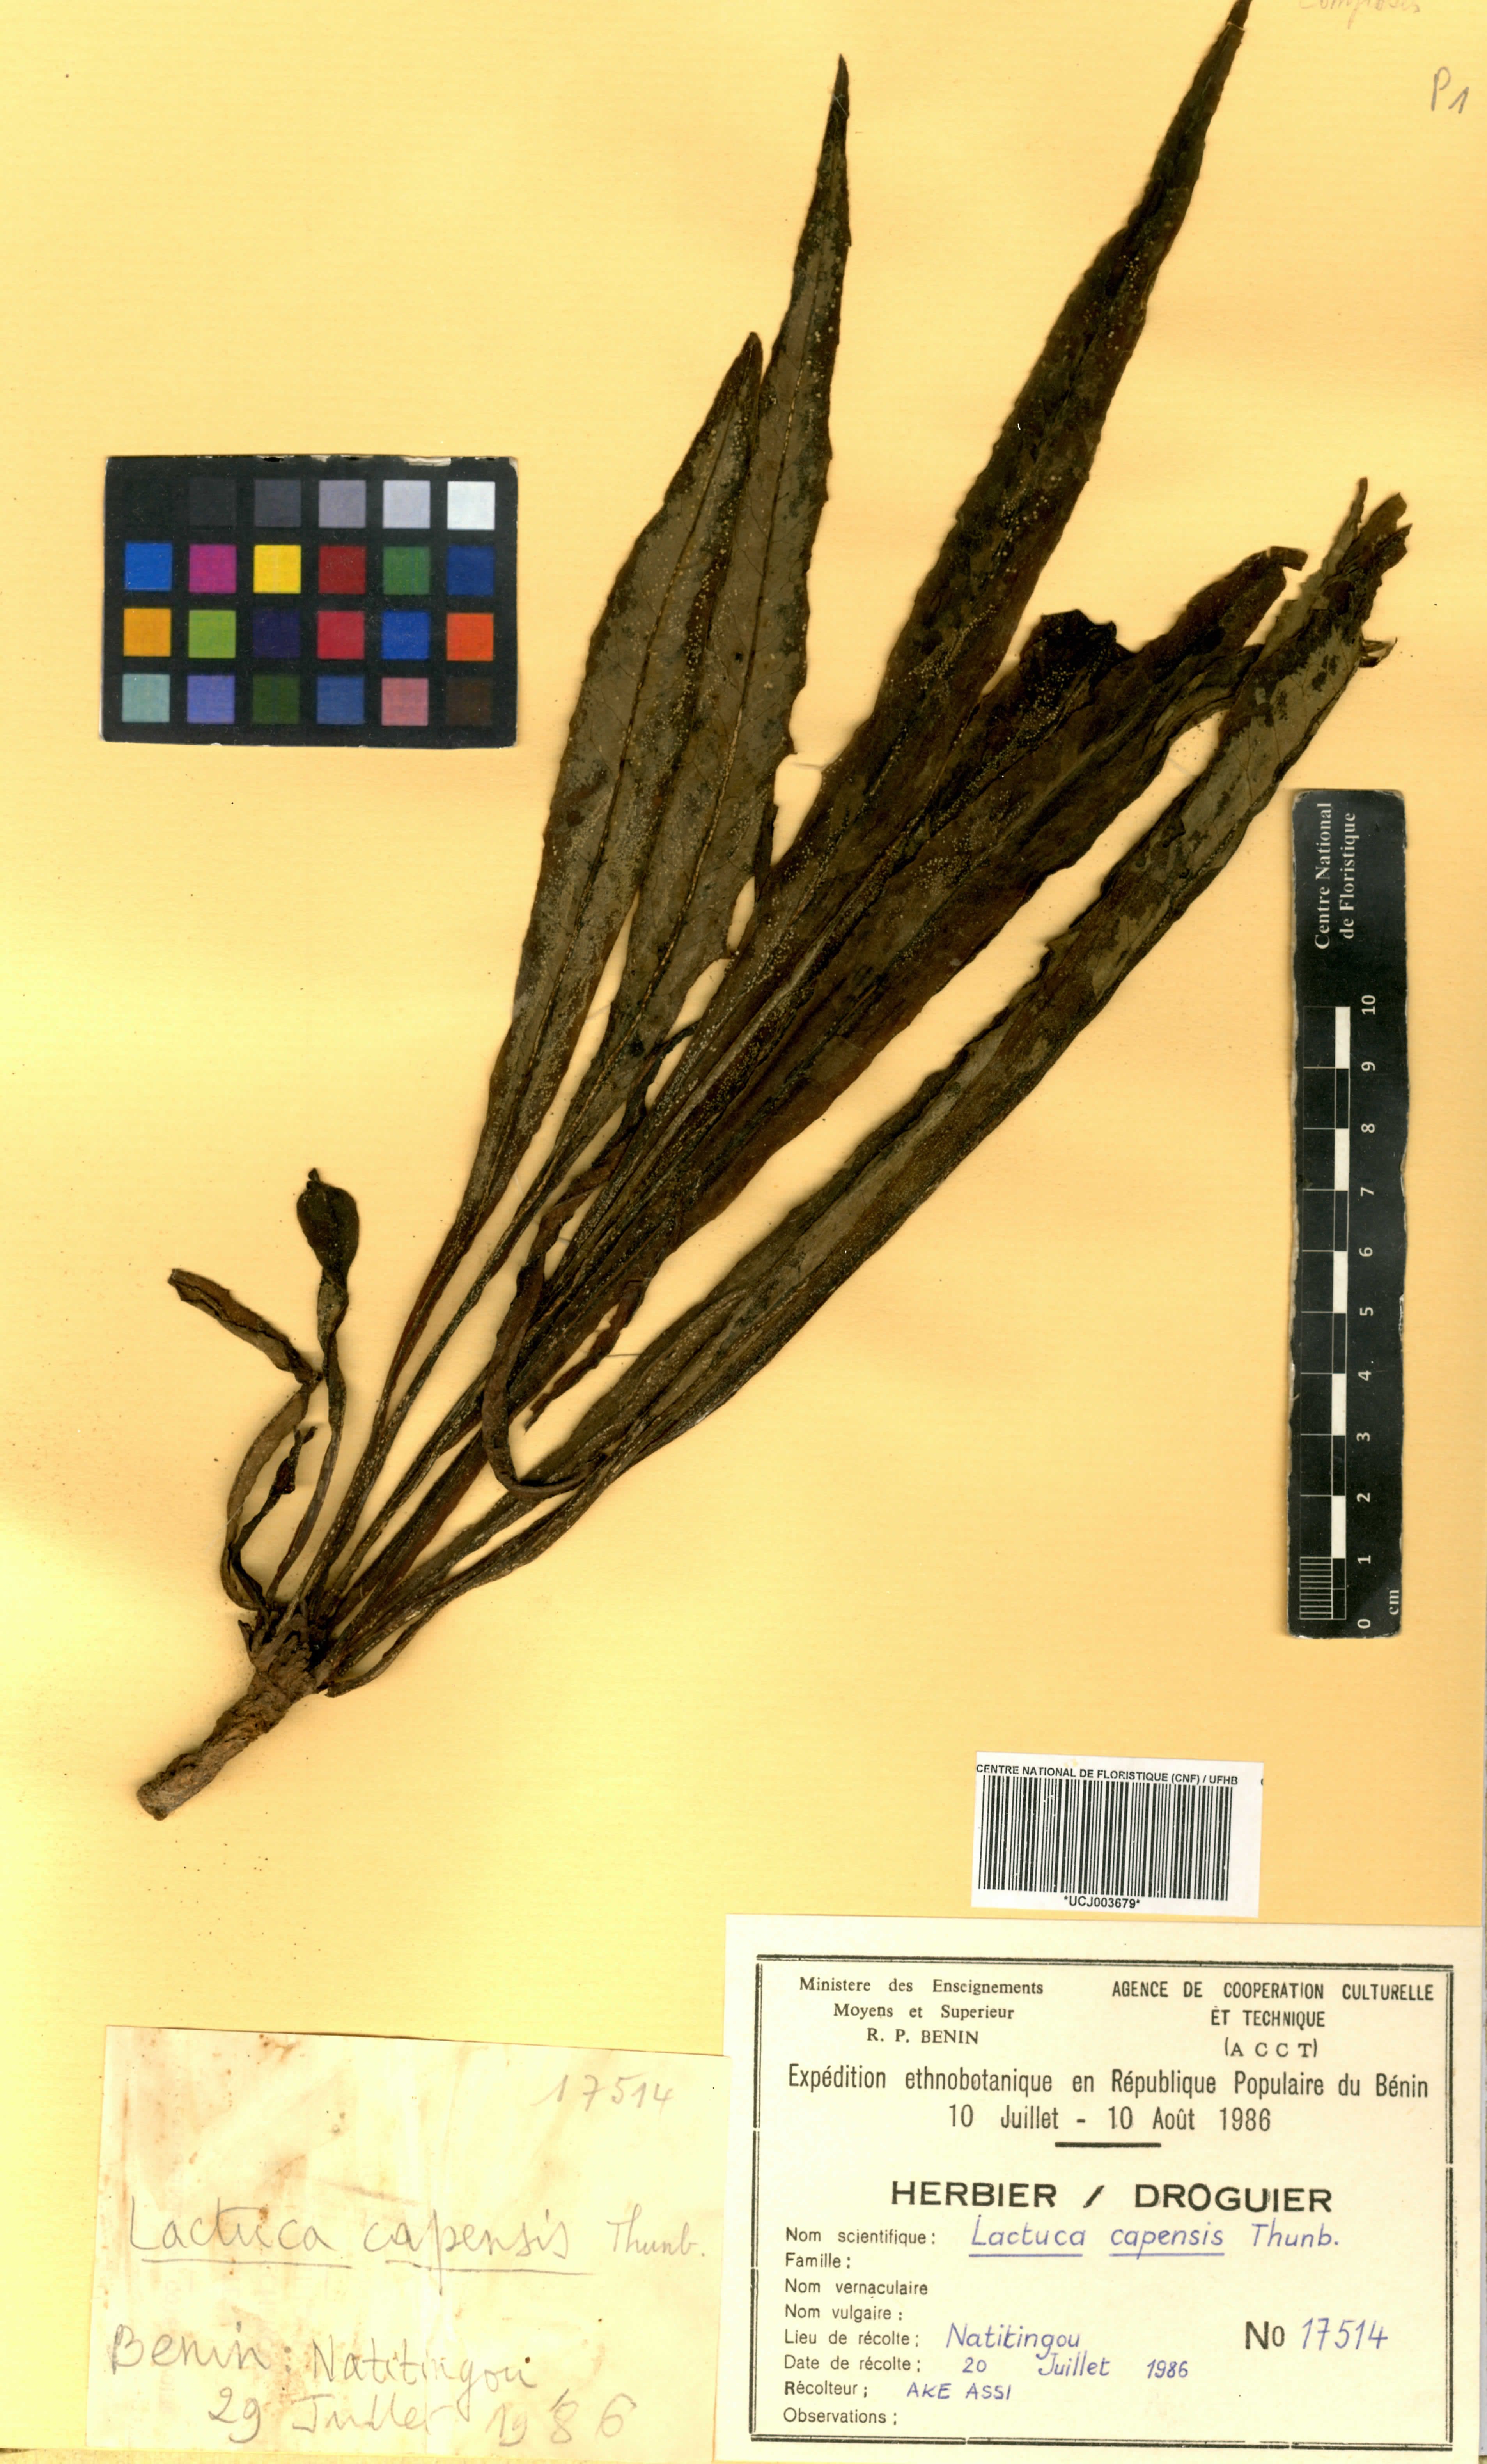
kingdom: Plantae
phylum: Tracheophyta
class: Magnoliopsida
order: Asterales
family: Asteraceae
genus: Lactuca
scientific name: Lactuca inermis
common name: Wild lettuce
